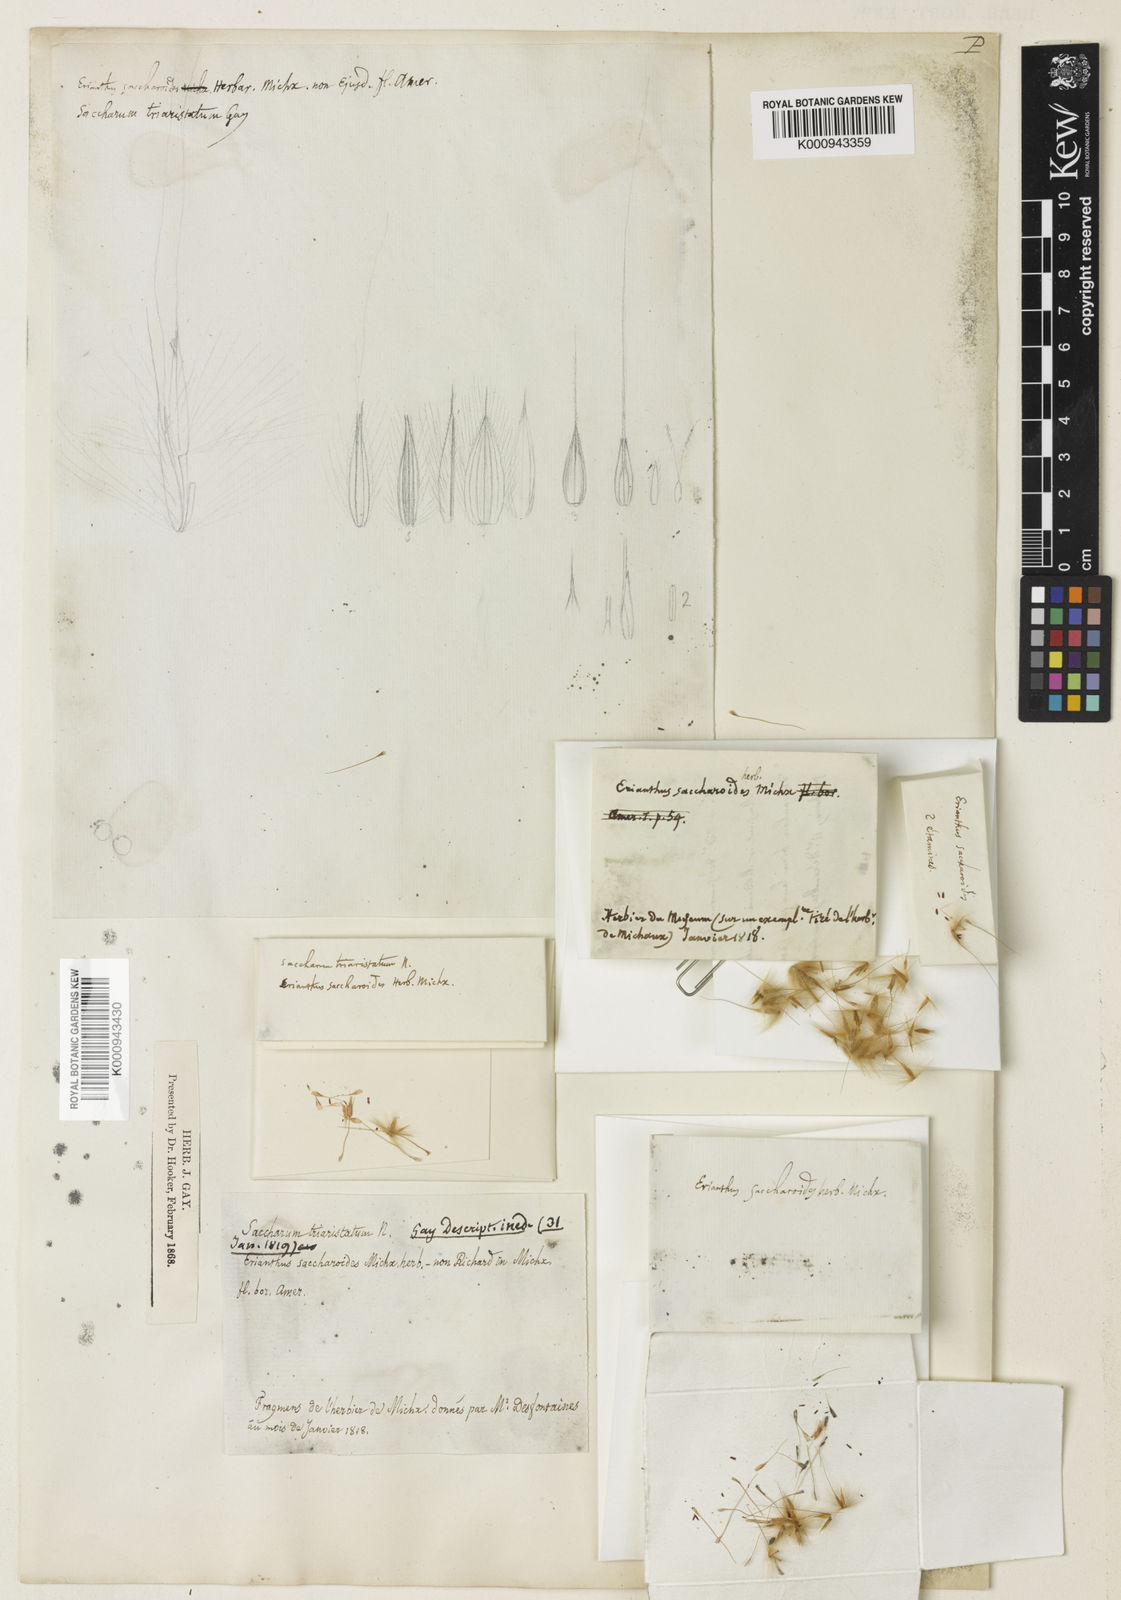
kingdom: Plantae
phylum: Tracheophyta
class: Liliopsida
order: Poales
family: Poaceae
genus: Saccharum
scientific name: Saccharum
